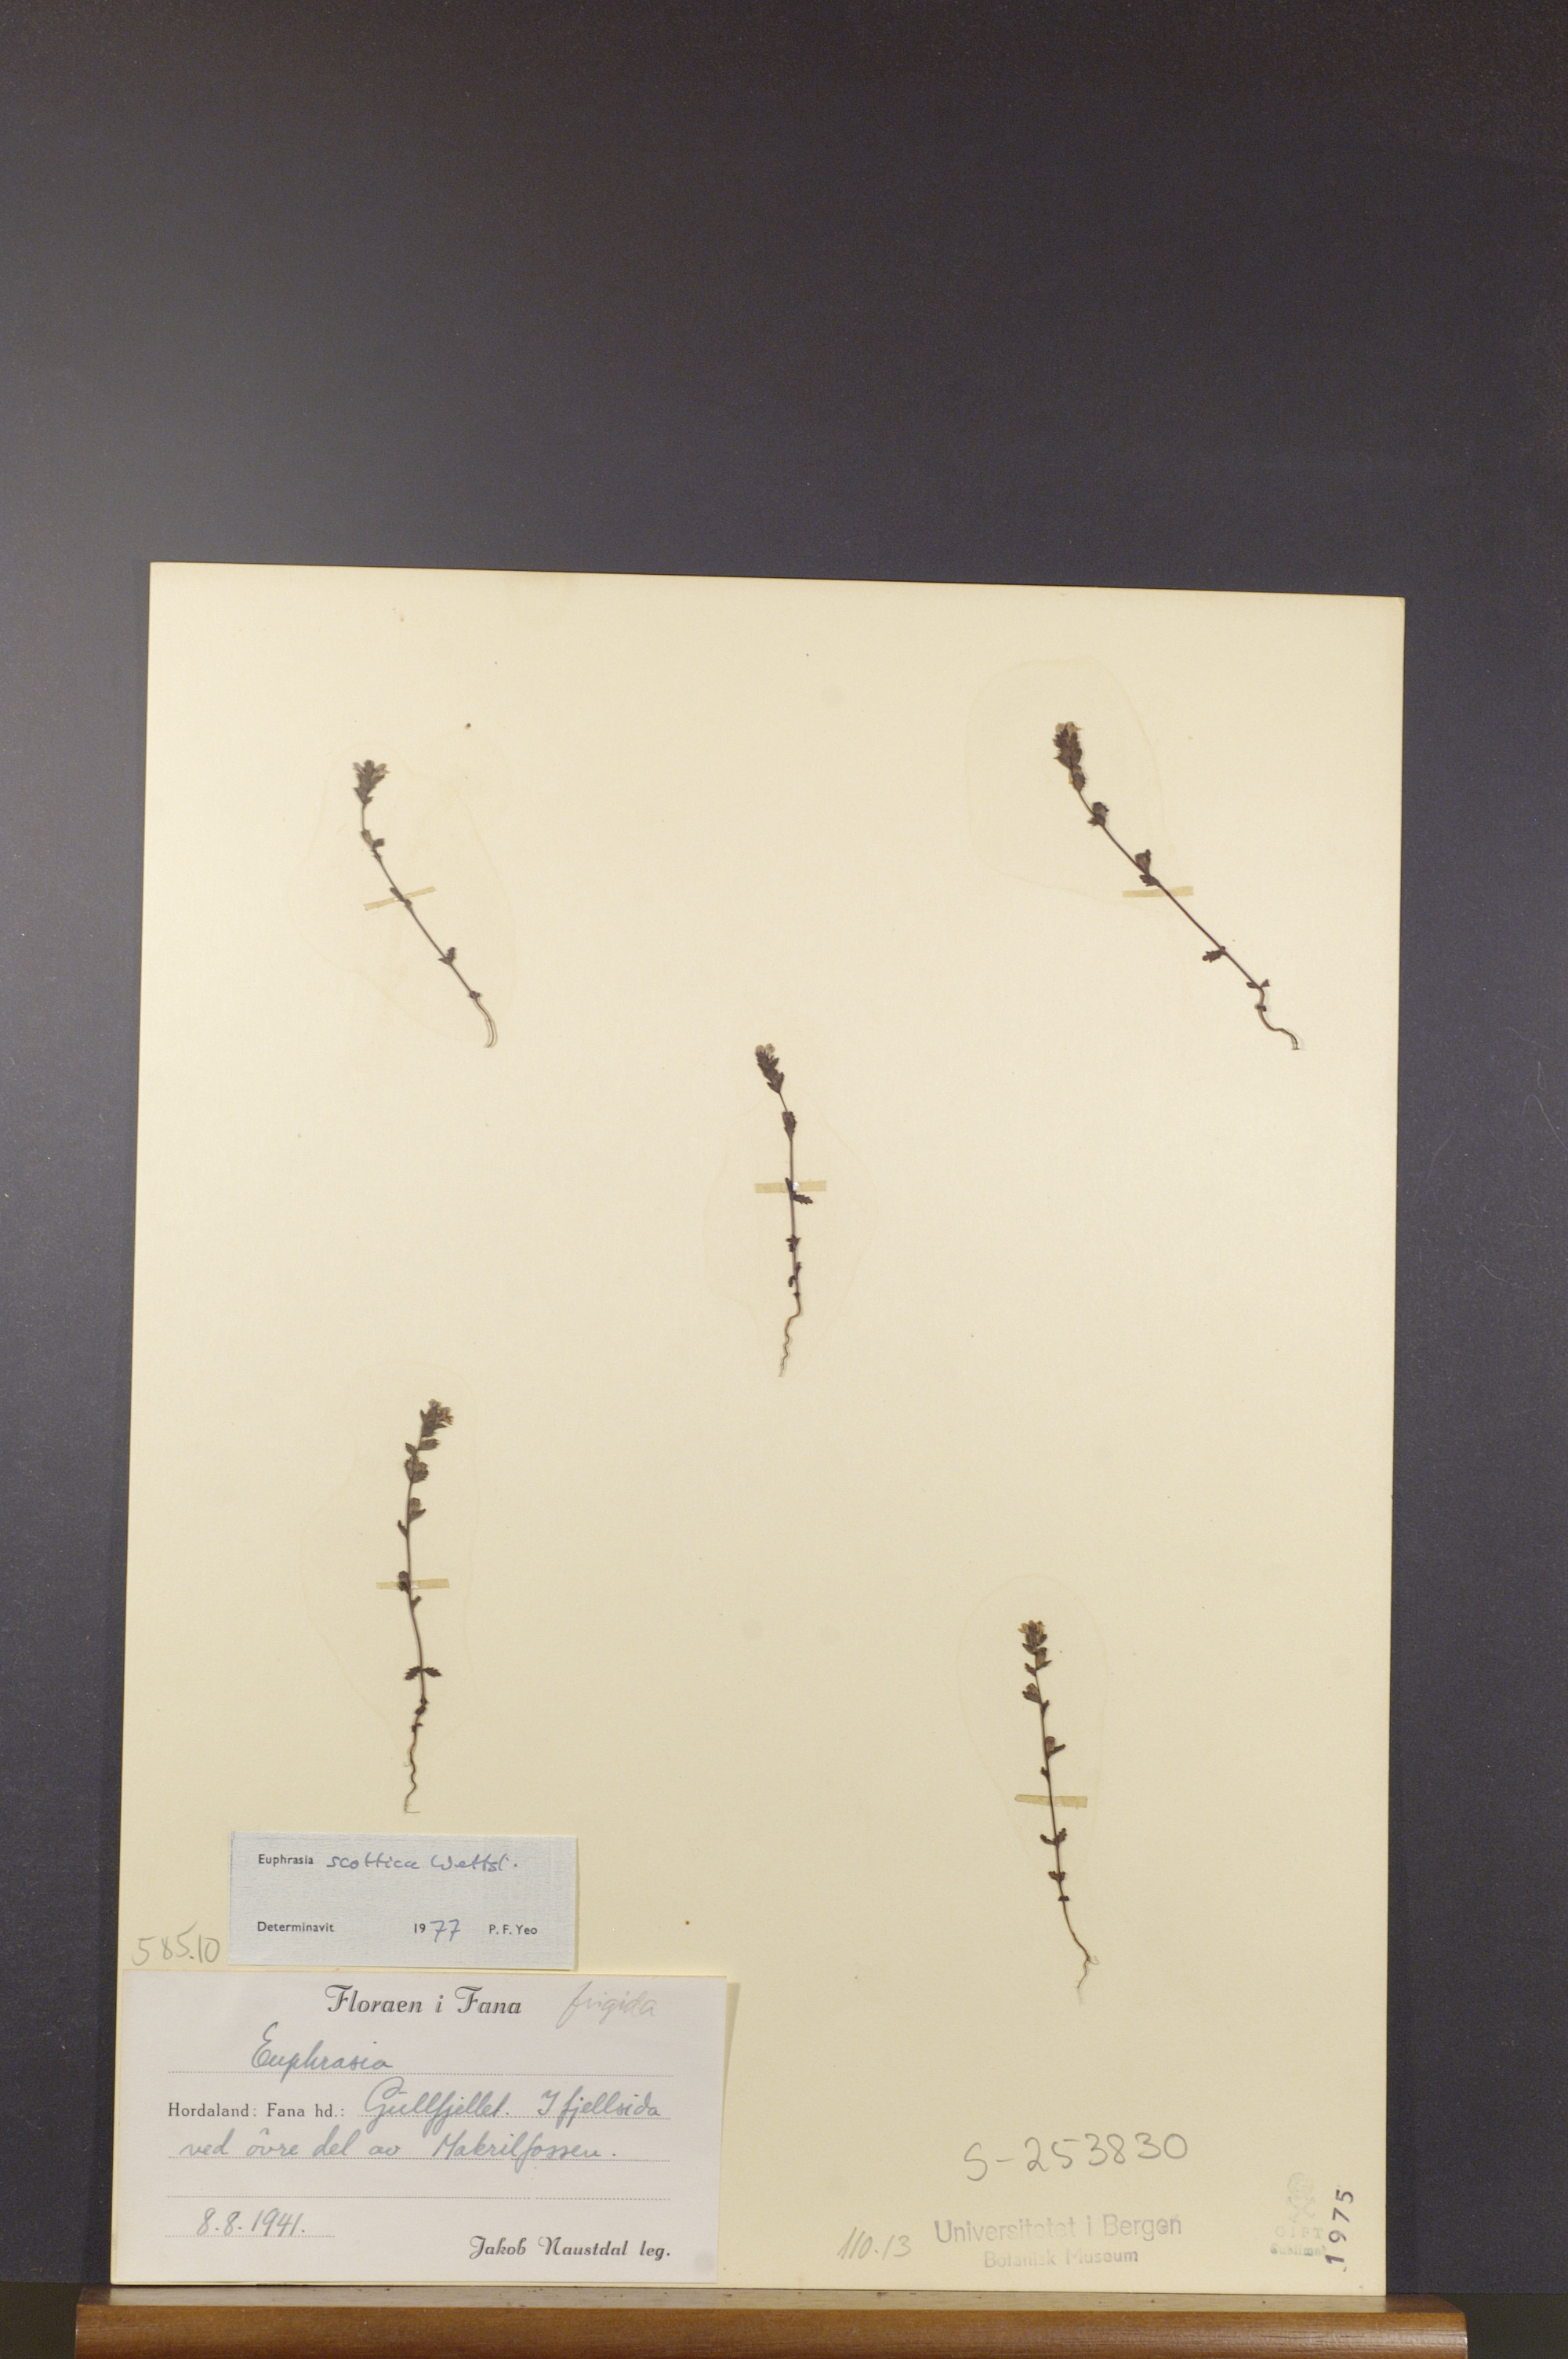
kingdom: Plantae
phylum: Tracheophyta
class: Magnoliopsida
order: Lamiales
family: Orobanchaceae
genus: Euphrasia
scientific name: Euphrasia scottica
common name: Slender scottish eyebright
